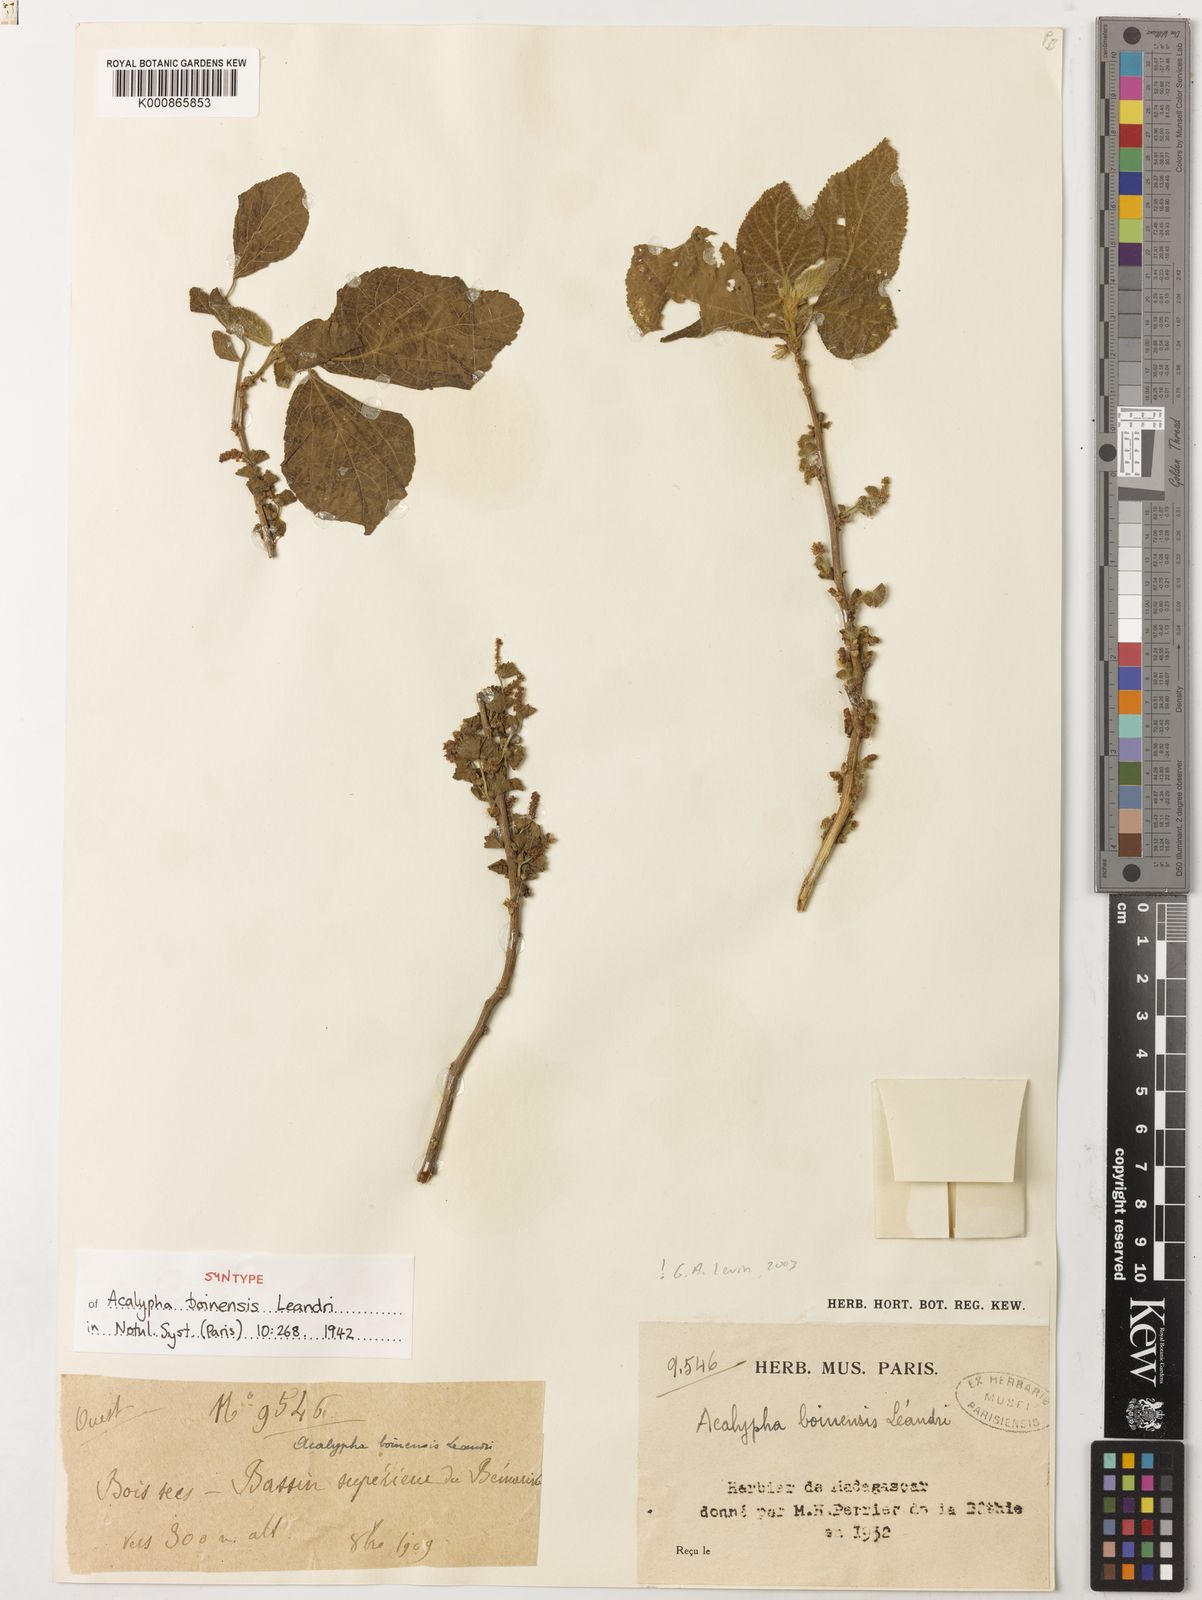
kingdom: Plantae
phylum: Tracheophyta
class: Magnoliopsida
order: Malpighiales
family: Euphorbiaceae
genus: Acalypha
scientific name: Acalypha boinensis
